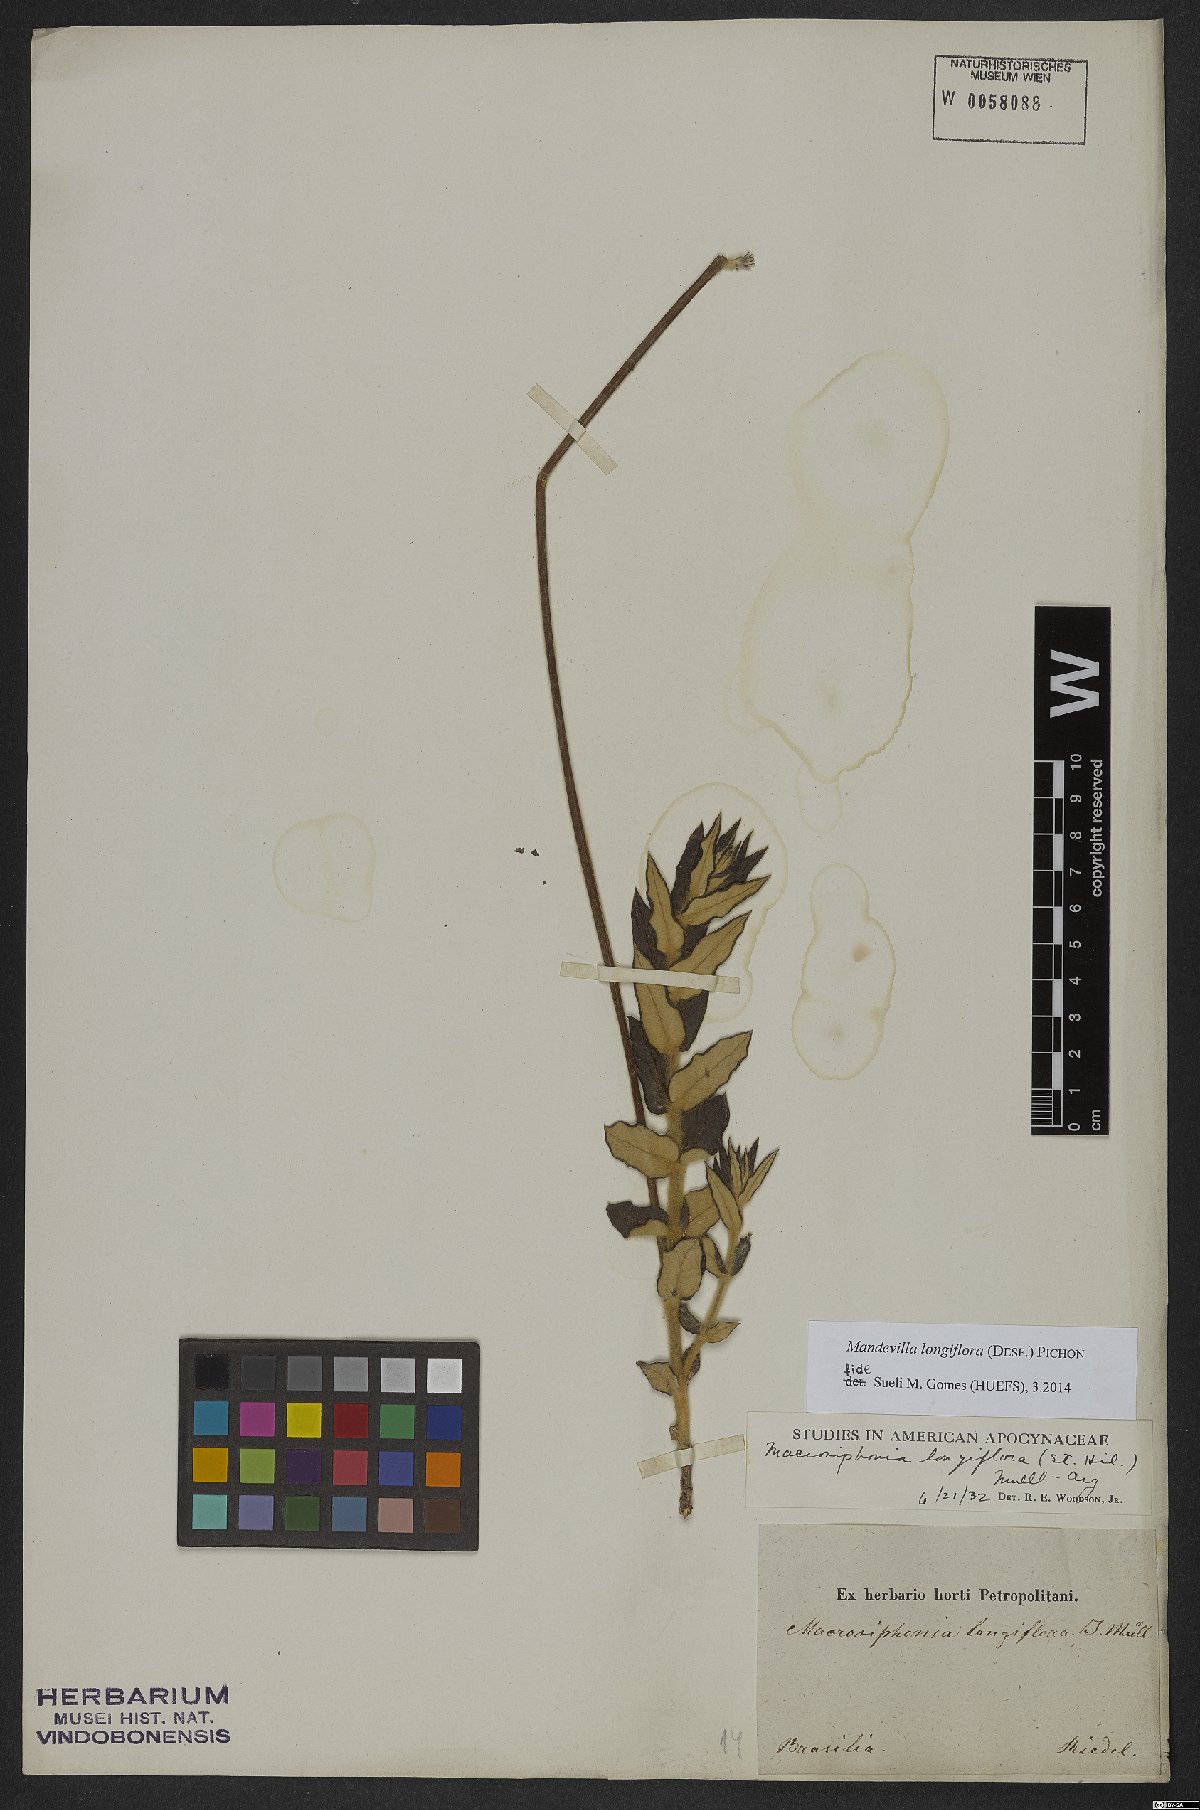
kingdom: Plantae
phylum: Tracheophyta
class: Magnoliopsida
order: Gentianales
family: Apocynaceae
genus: Mandevilla
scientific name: Mandevilla longiflora
